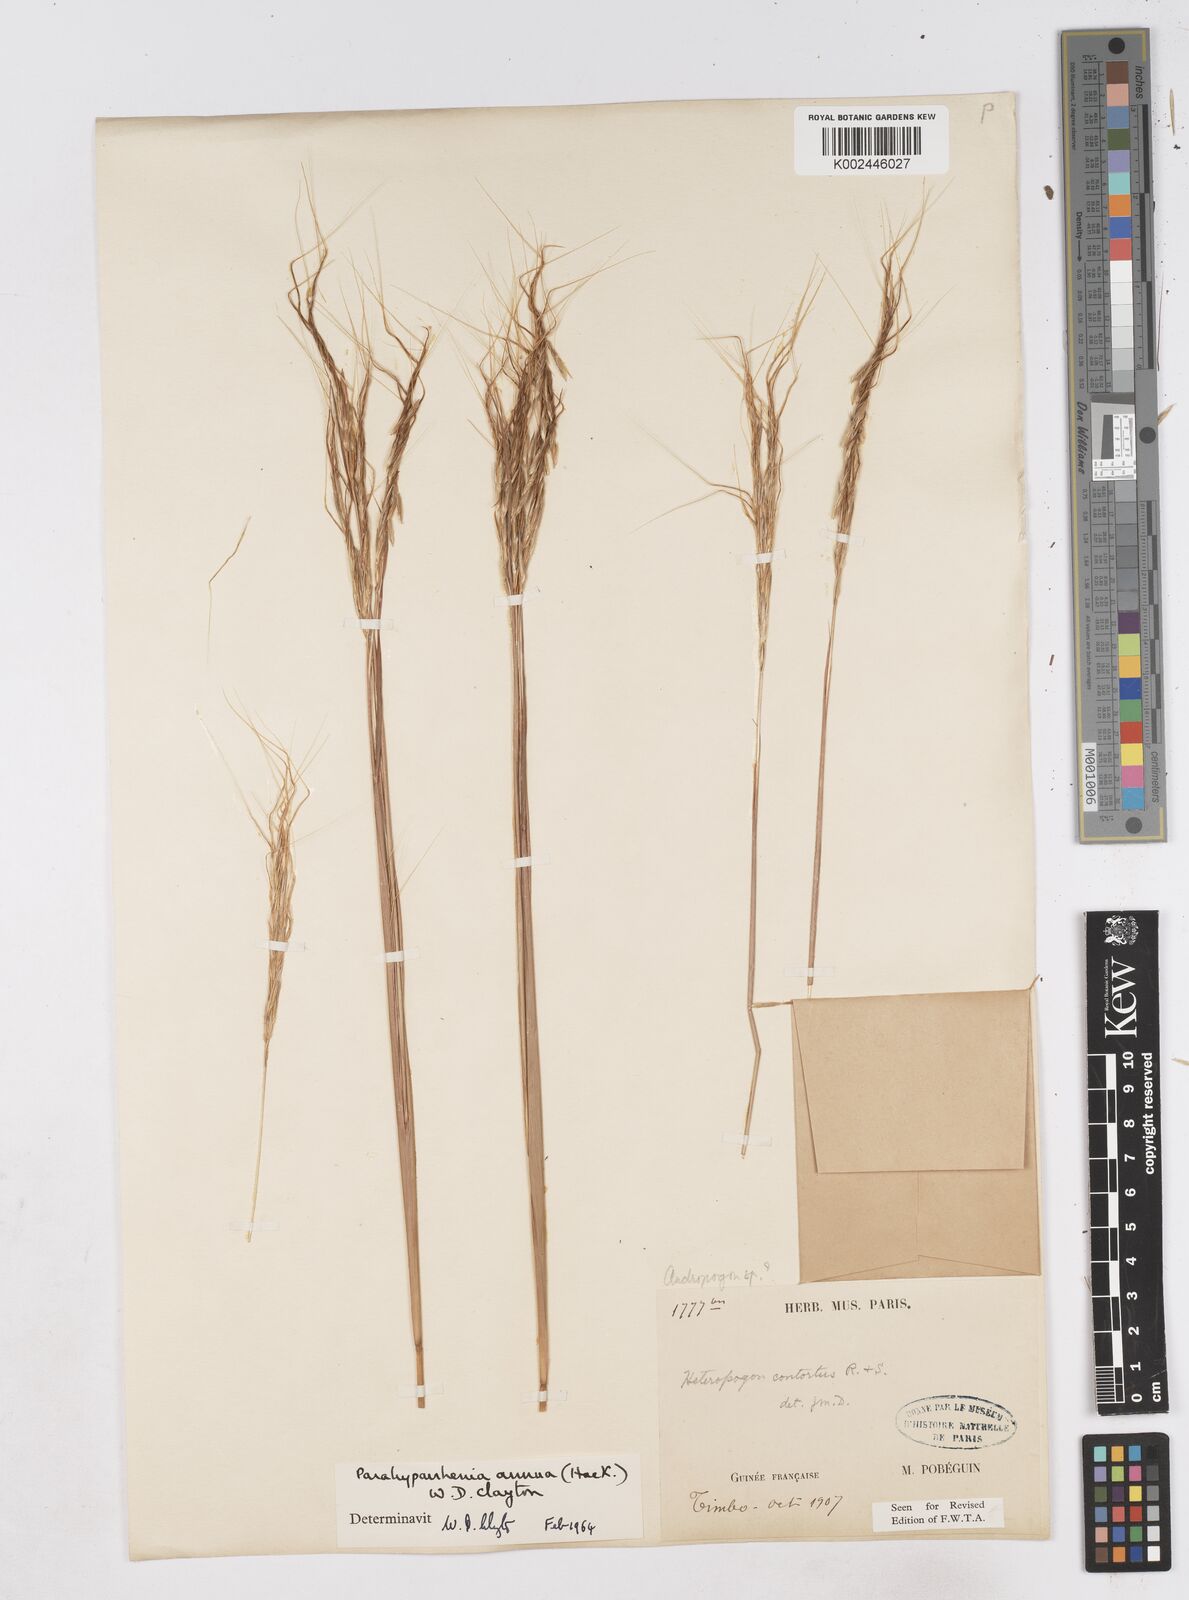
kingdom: Plantae
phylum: Tracheophyta
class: Liliopsida
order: Poales
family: Poaceae
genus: Parahyparrhenia
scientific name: Parahyparrhenia annua
